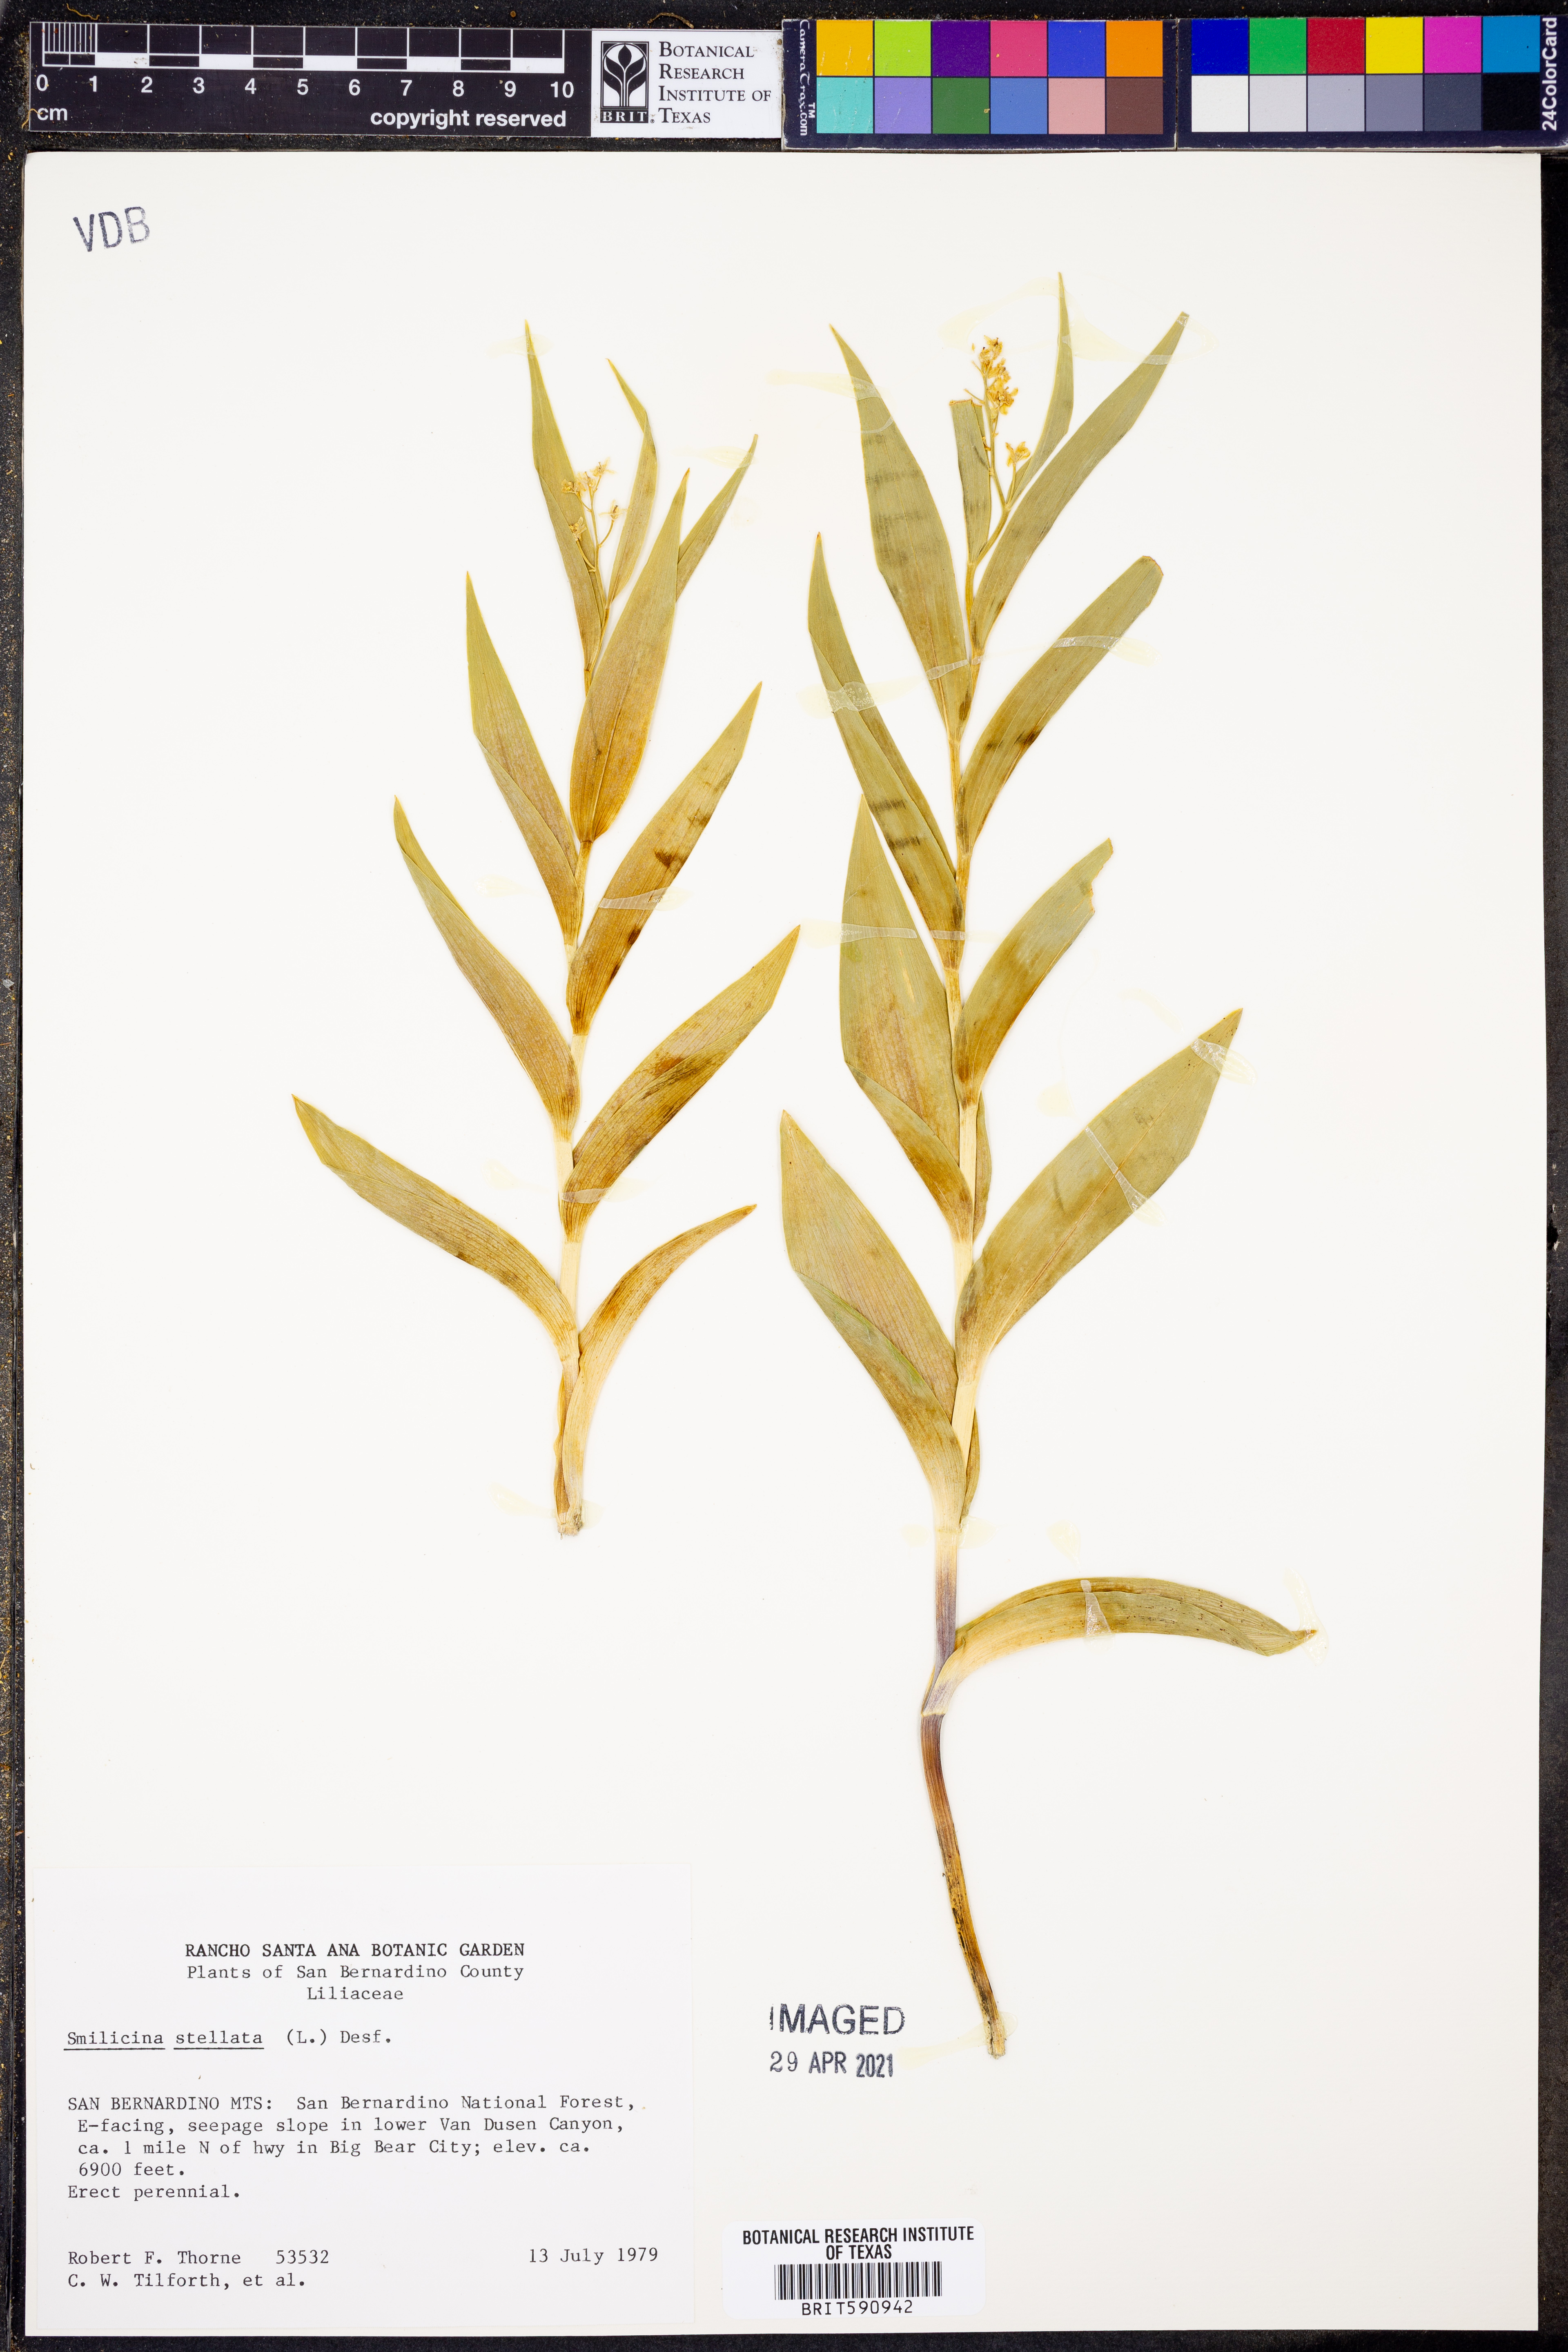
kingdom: Plantae
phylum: Tracheophyta
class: Liliopsida
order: Asparagales
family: Asparagaceae
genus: Maianthemum
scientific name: Maianthemum stellatum
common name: Little false solomon's seal
